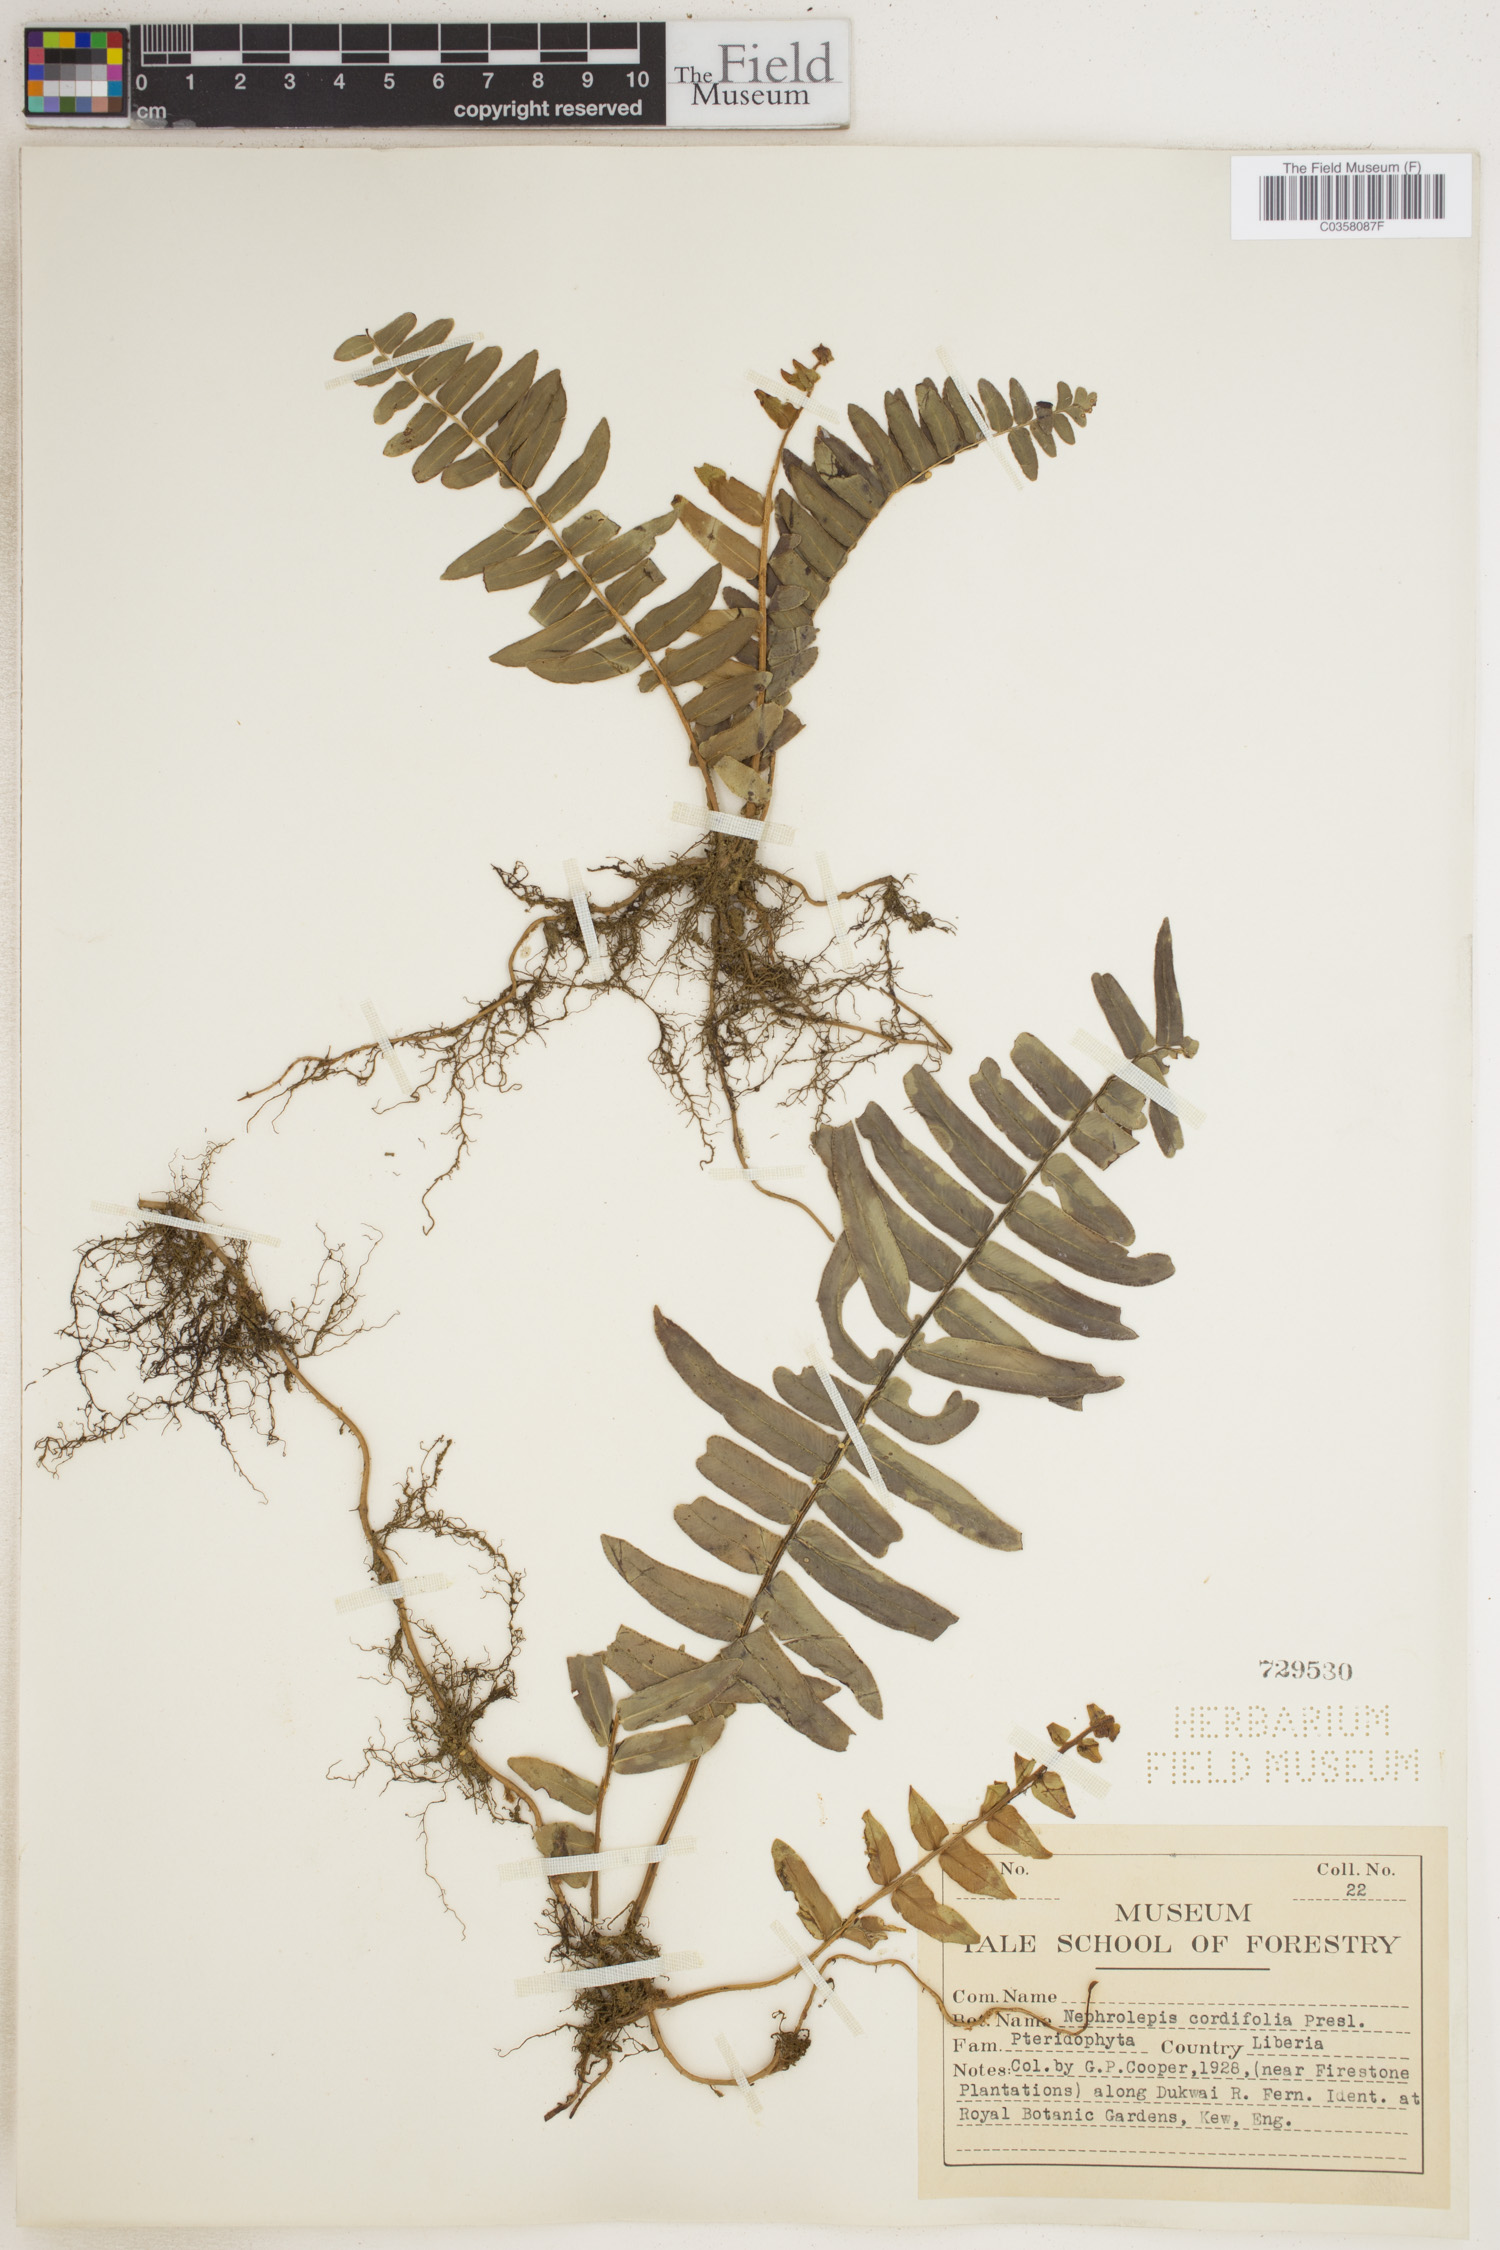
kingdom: Plantae
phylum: Tracheophyta
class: Polypodiopsida
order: Polypodiales
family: Nephrolepidaceae
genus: Nephrolepis
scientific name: Nephrolepis cordifolia
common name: Narrow swordfern
